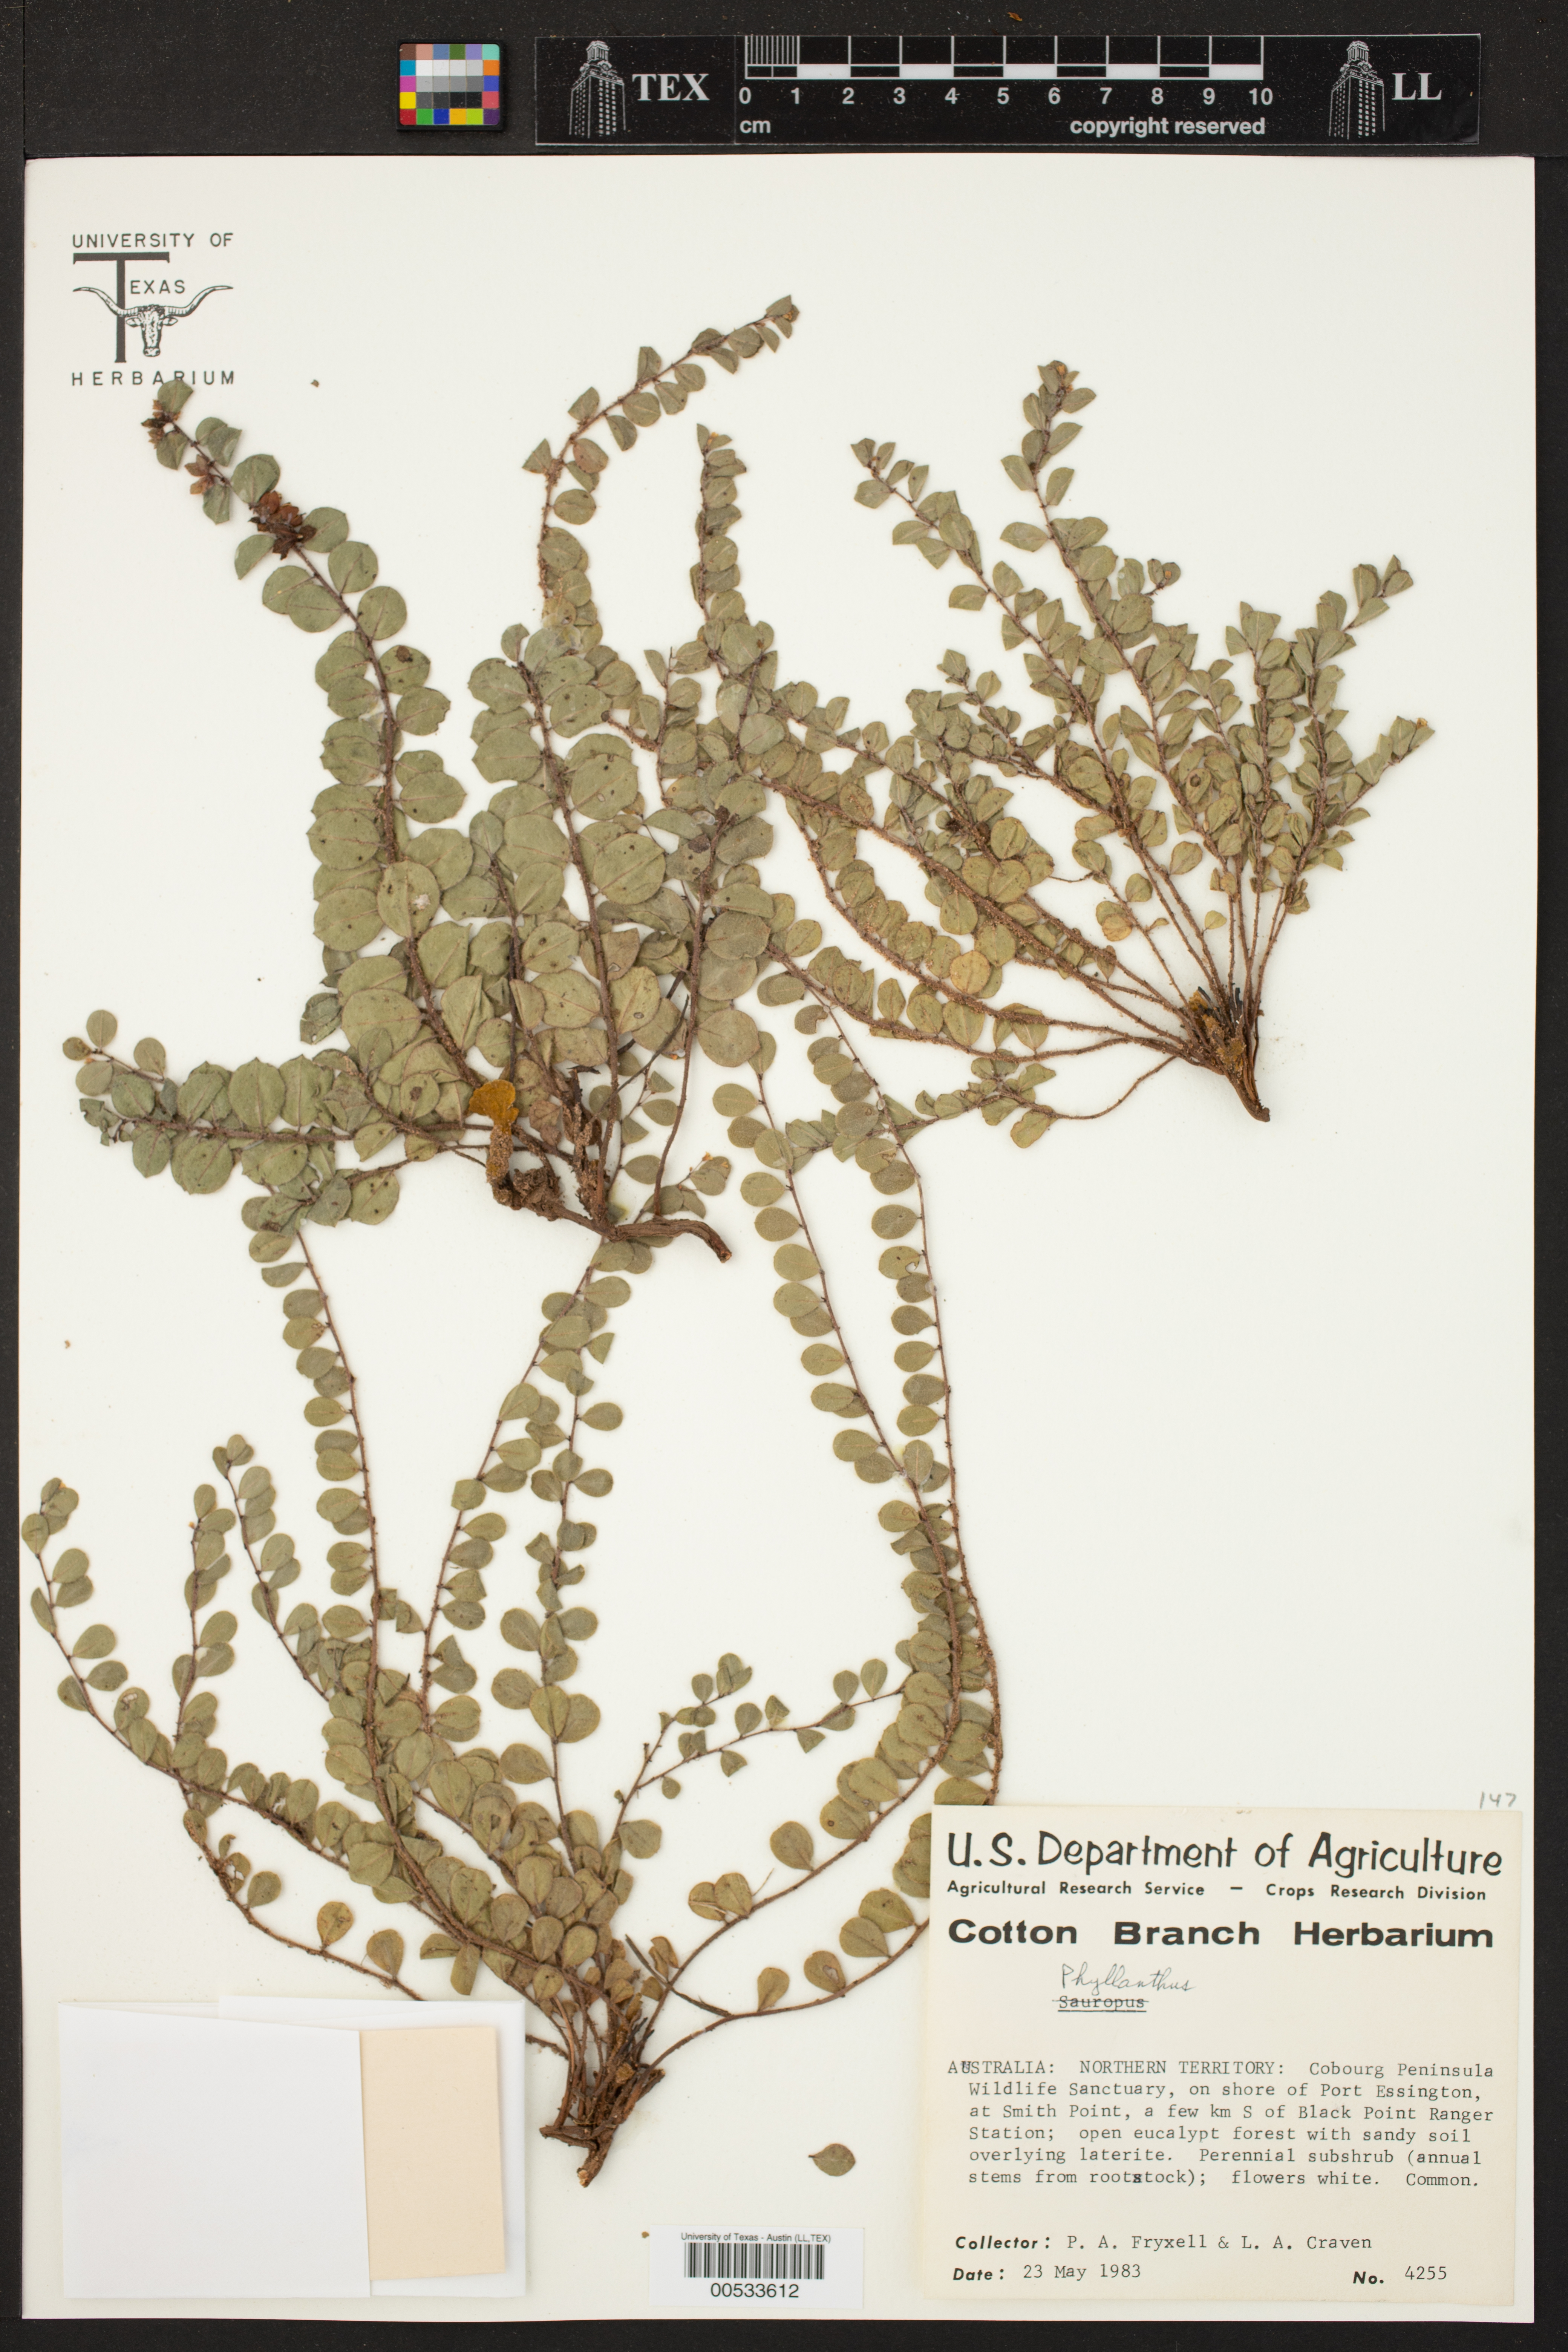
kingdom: Plantae
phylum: Tracheophyta
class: Magnoliopsida
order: Malpighiales
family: Phyllanthaceae
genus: Phyllanthus
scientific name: Phyllanthus
